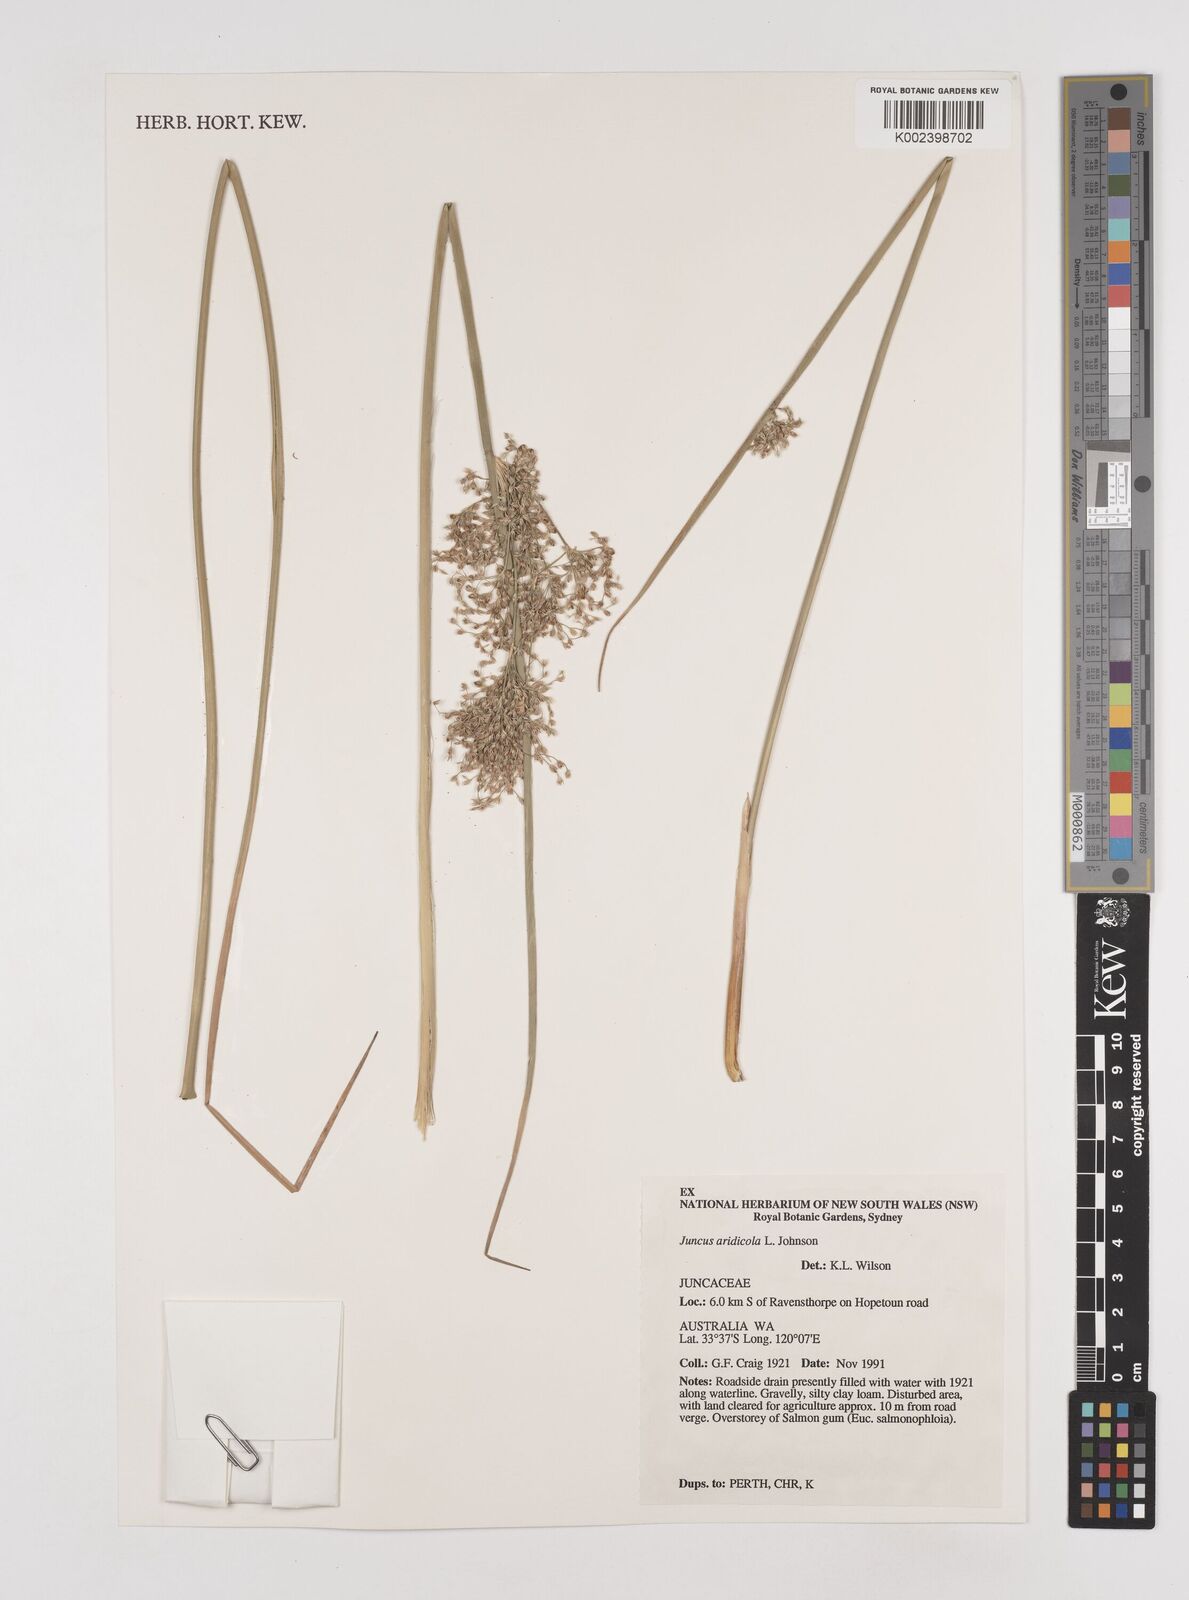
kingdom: Plantae
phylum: Tracheophyta
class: Liliopsida
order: Poales
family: Juncaceae
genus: Juncus
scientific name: Juncus aridicola
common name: Tussock rush
